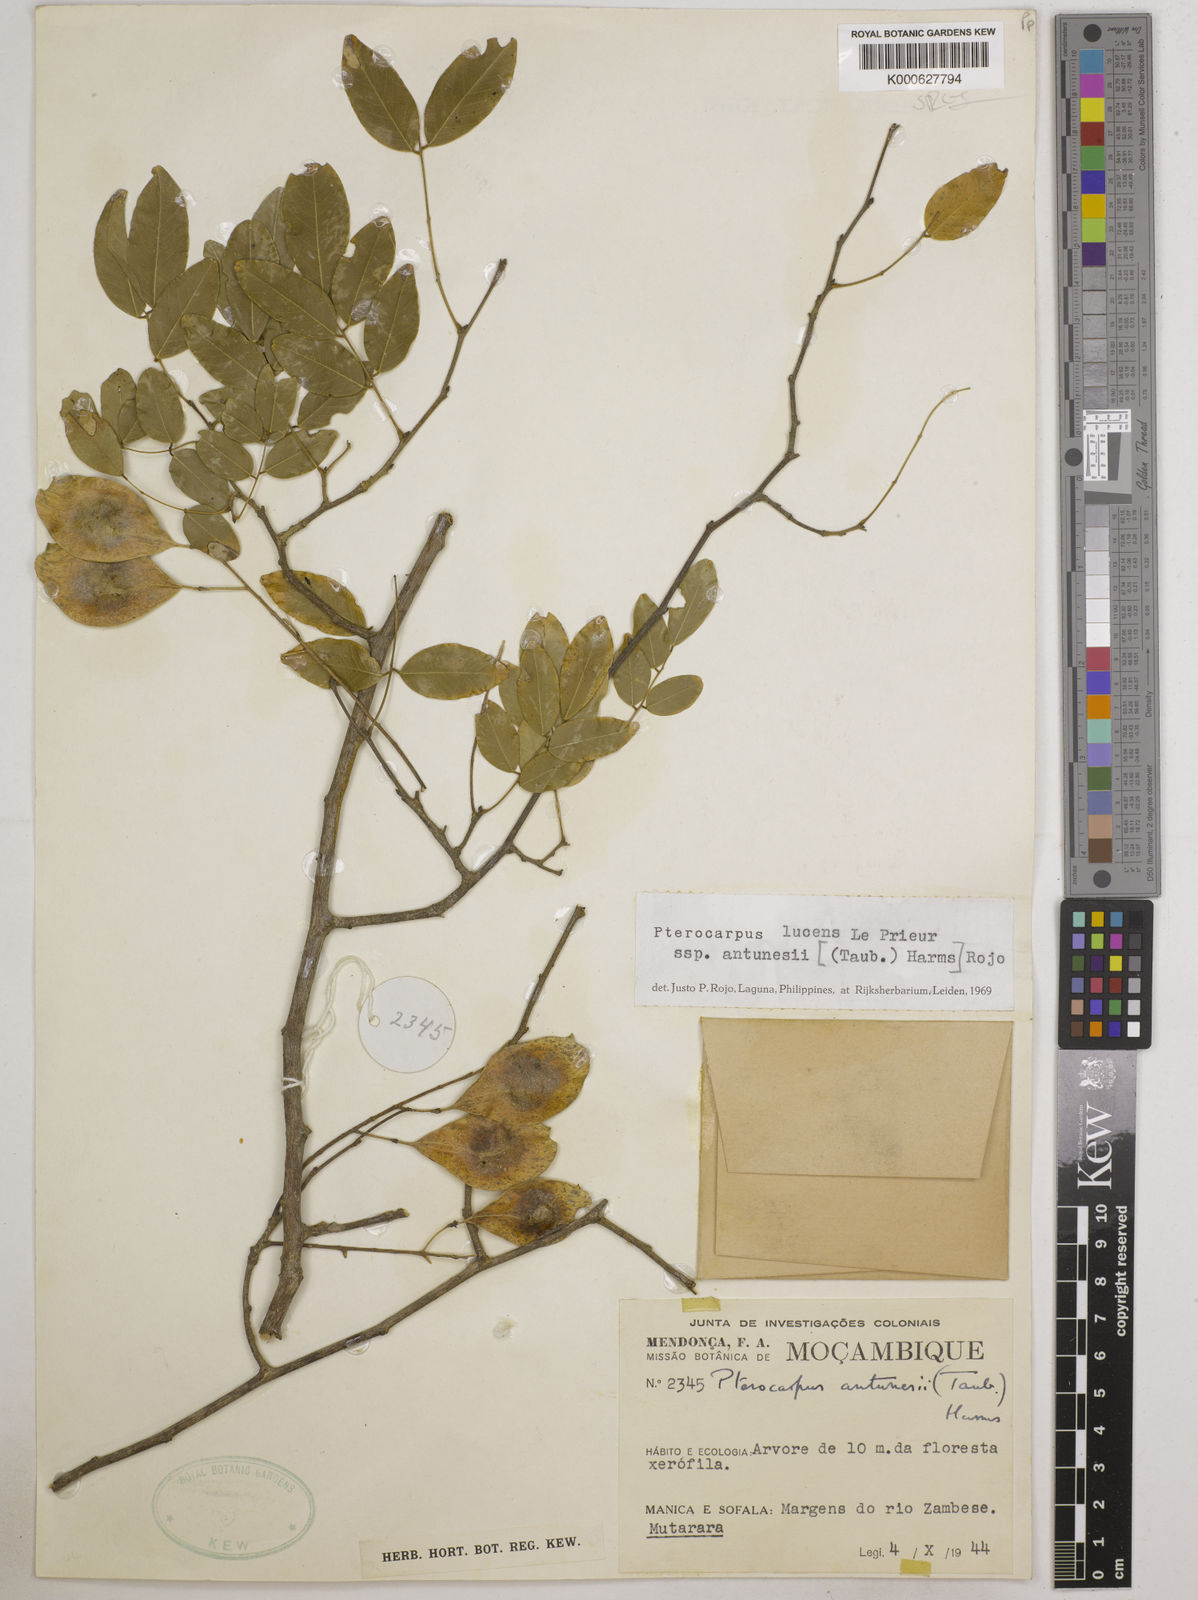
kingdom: Plantae
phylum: Tracheophyta
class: Magnoliopsida
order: Fabales
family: Fabaceae
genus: Pterocarpus
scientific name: Pterocarpus lucens
